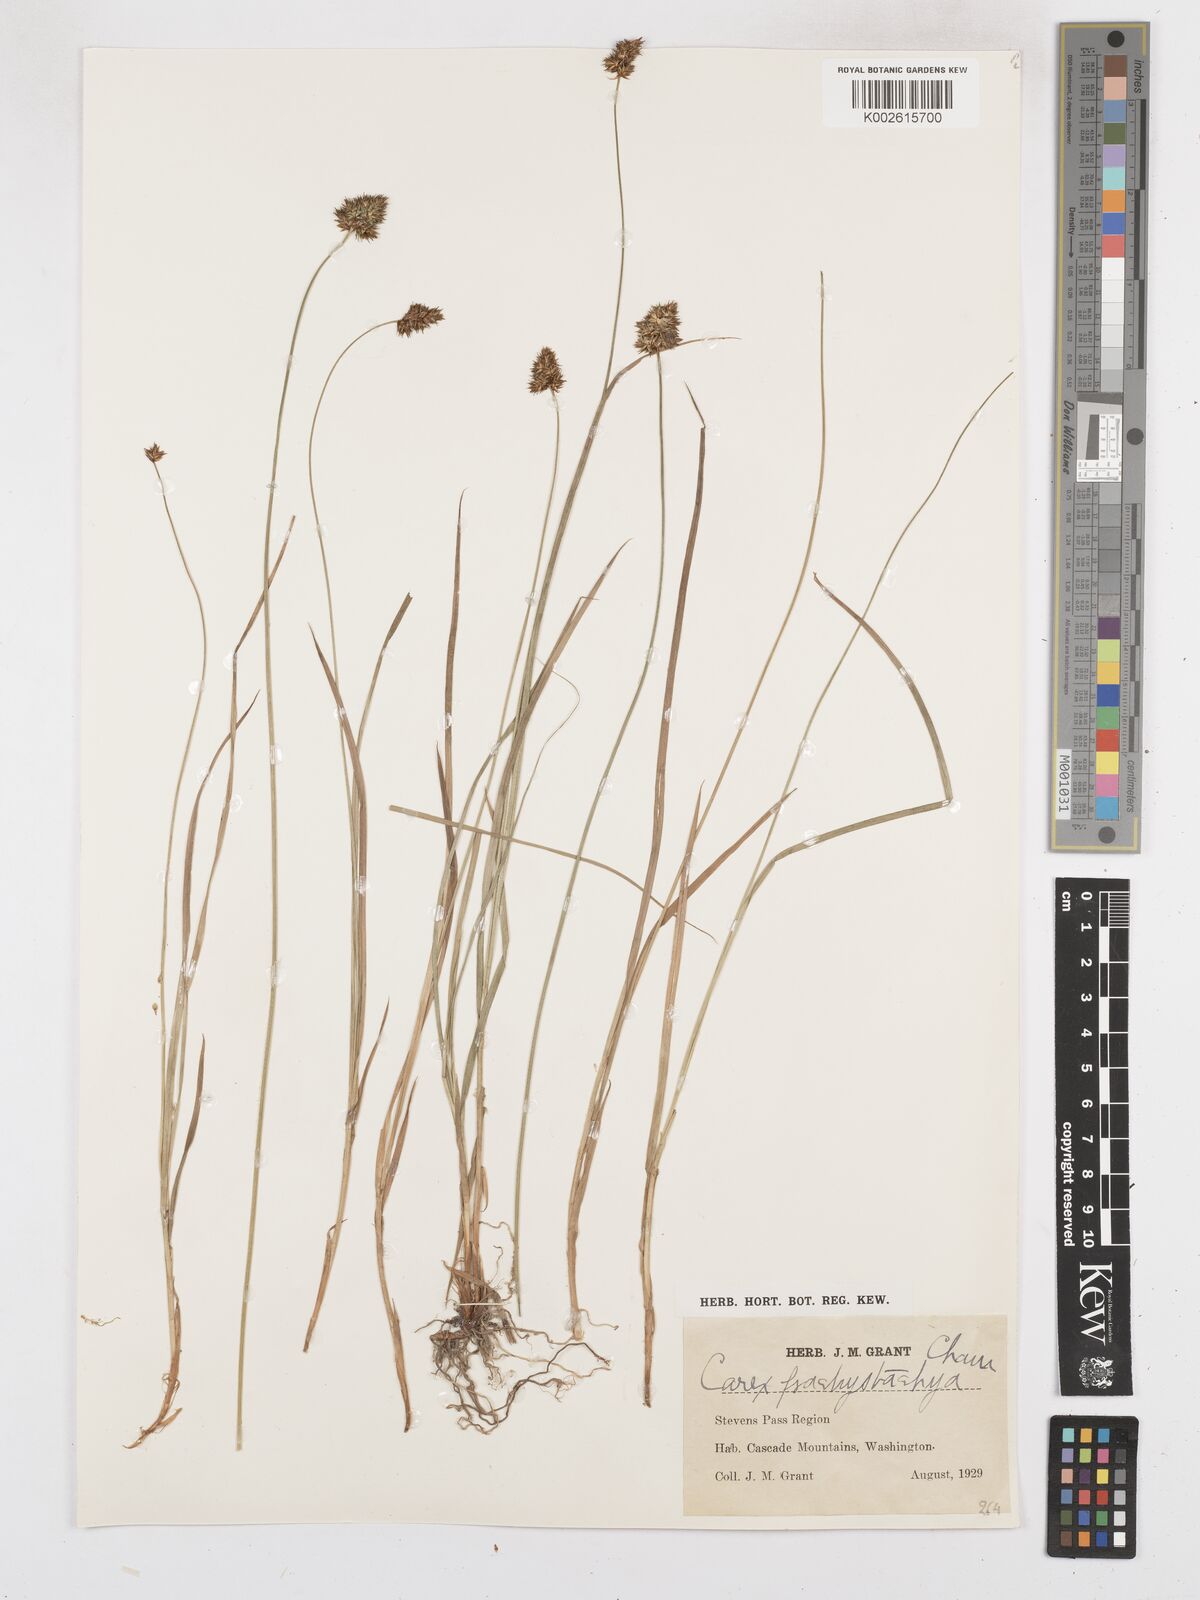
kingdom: Plantae
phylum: Tracheophyta
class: Liliopsida
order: Poales
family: Cyperaceae
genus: Carex
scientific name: Carex pachystachya
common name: Chamisso's sedge
